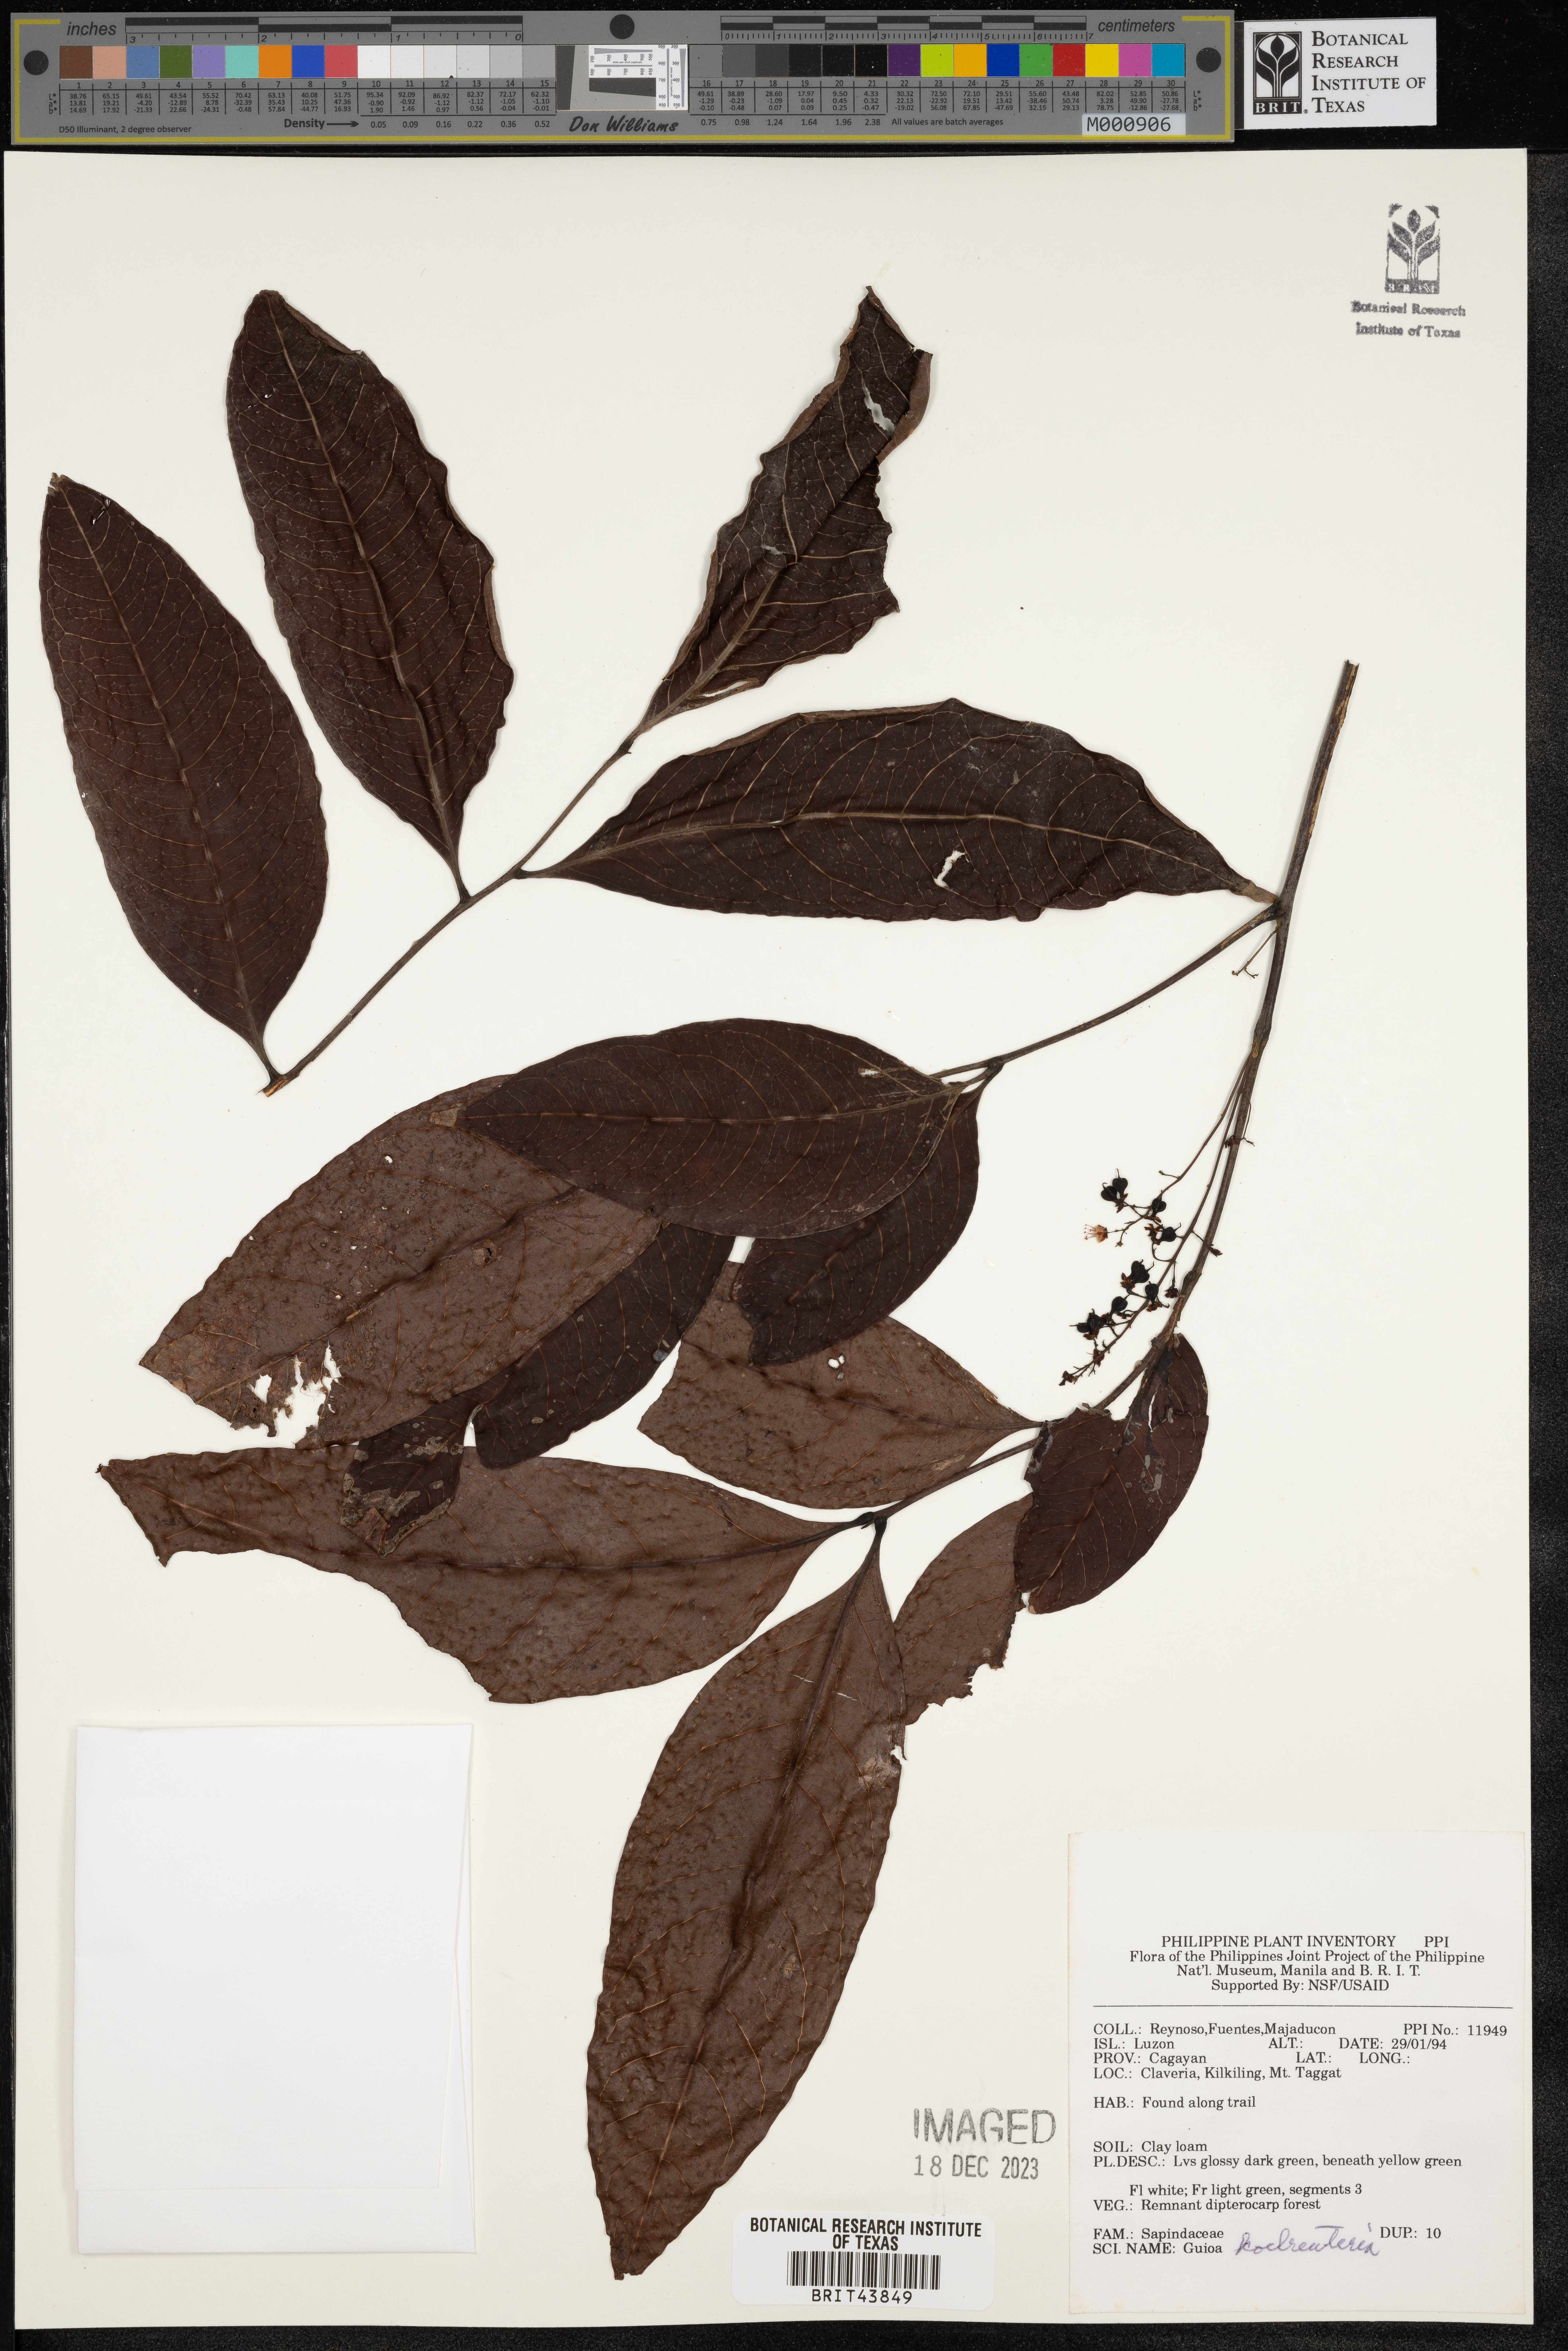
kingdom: Plantae
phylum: Tracheophyta
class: Magnoliopsida
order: Sapindales
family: Sapindaceae
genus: Guioa
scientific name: Guioa koelreuteria
